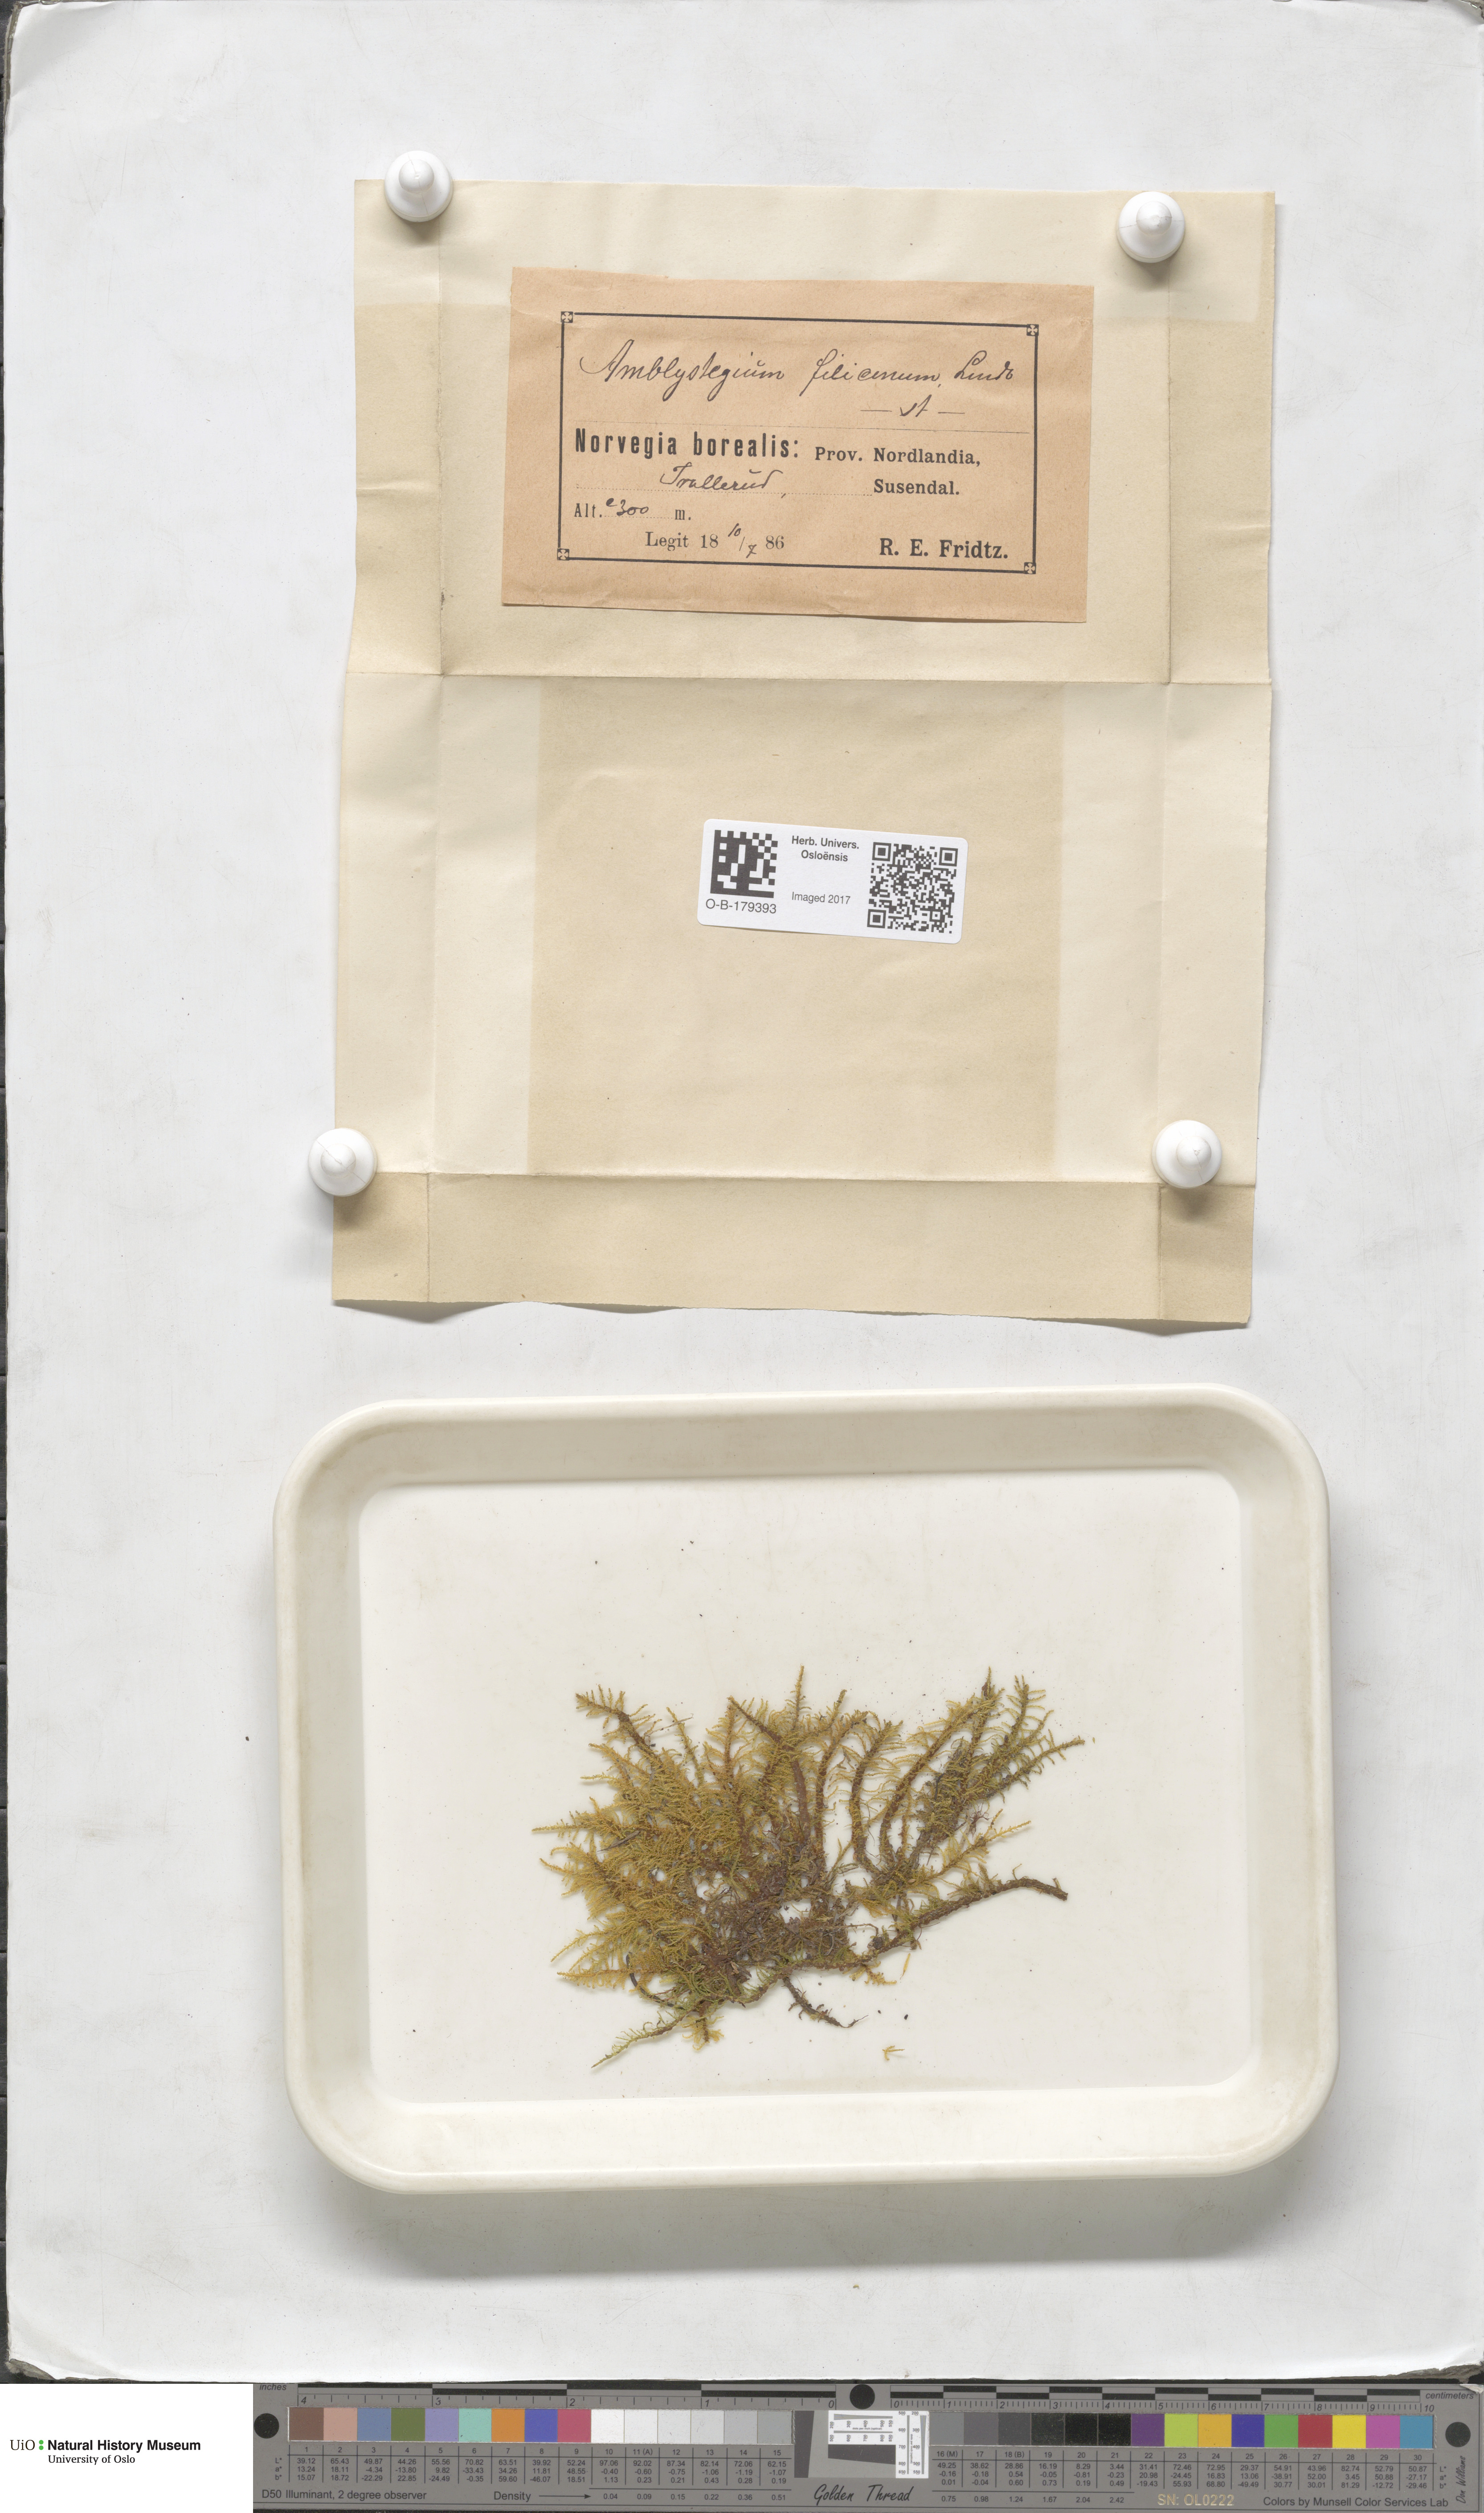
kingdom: Plantae
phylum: Bryophyta
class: Bryopsida
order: Hypnales
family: Amblystegiaceae
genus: Cratoneuron
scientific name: Cratoneuron filicinum
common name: Fern-leaved hook moss
